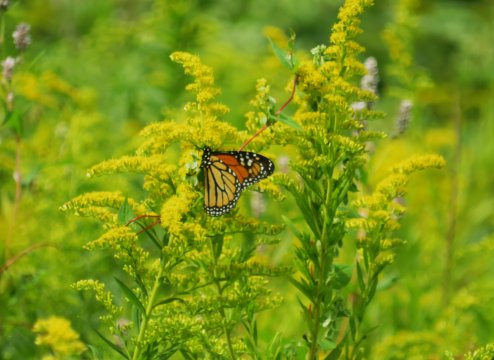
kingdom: Animalia
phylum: Arthropoda
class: Insecta
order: Lepidoptera
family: Nymphalidae
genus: Danaus
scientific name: Danaus plexippus
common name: Monarch
